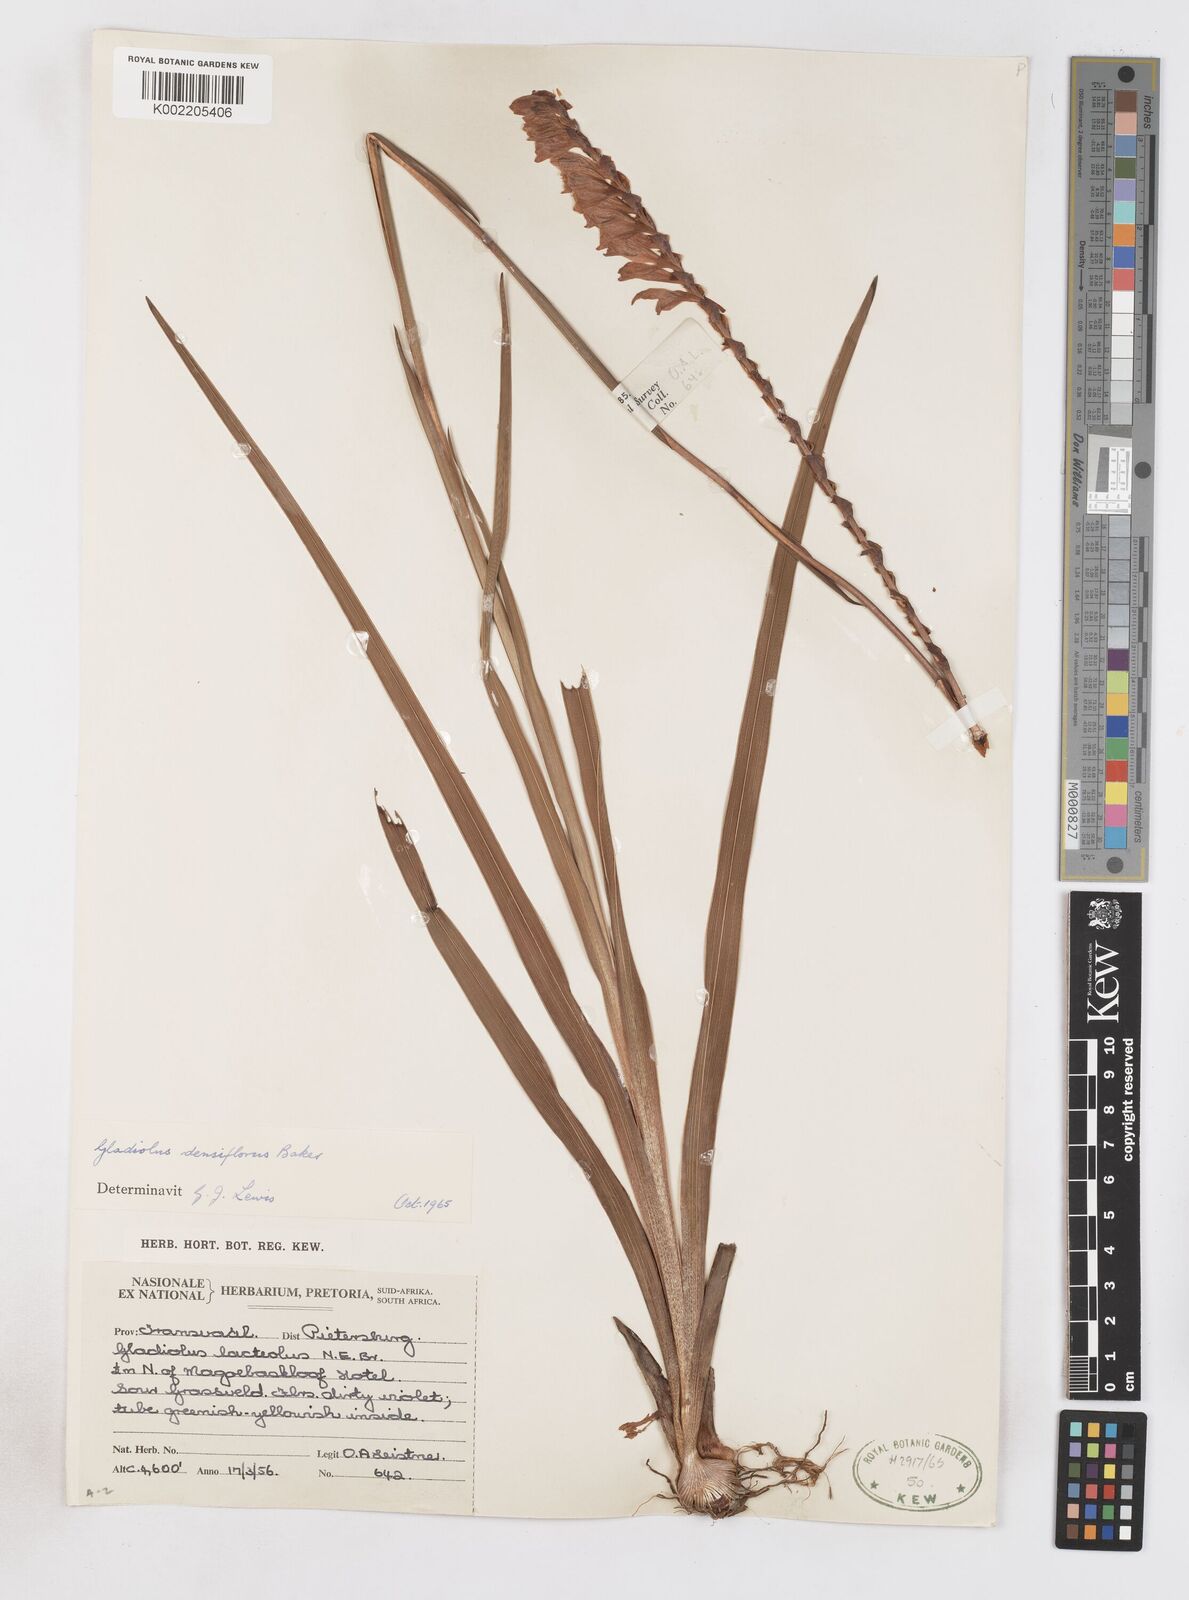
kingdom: Plantae
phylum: Tracheophyta
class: Liliopsida
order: Asparagales
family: Iridaceae
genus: Gladiolus
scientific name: Gladiolus densiflorus
